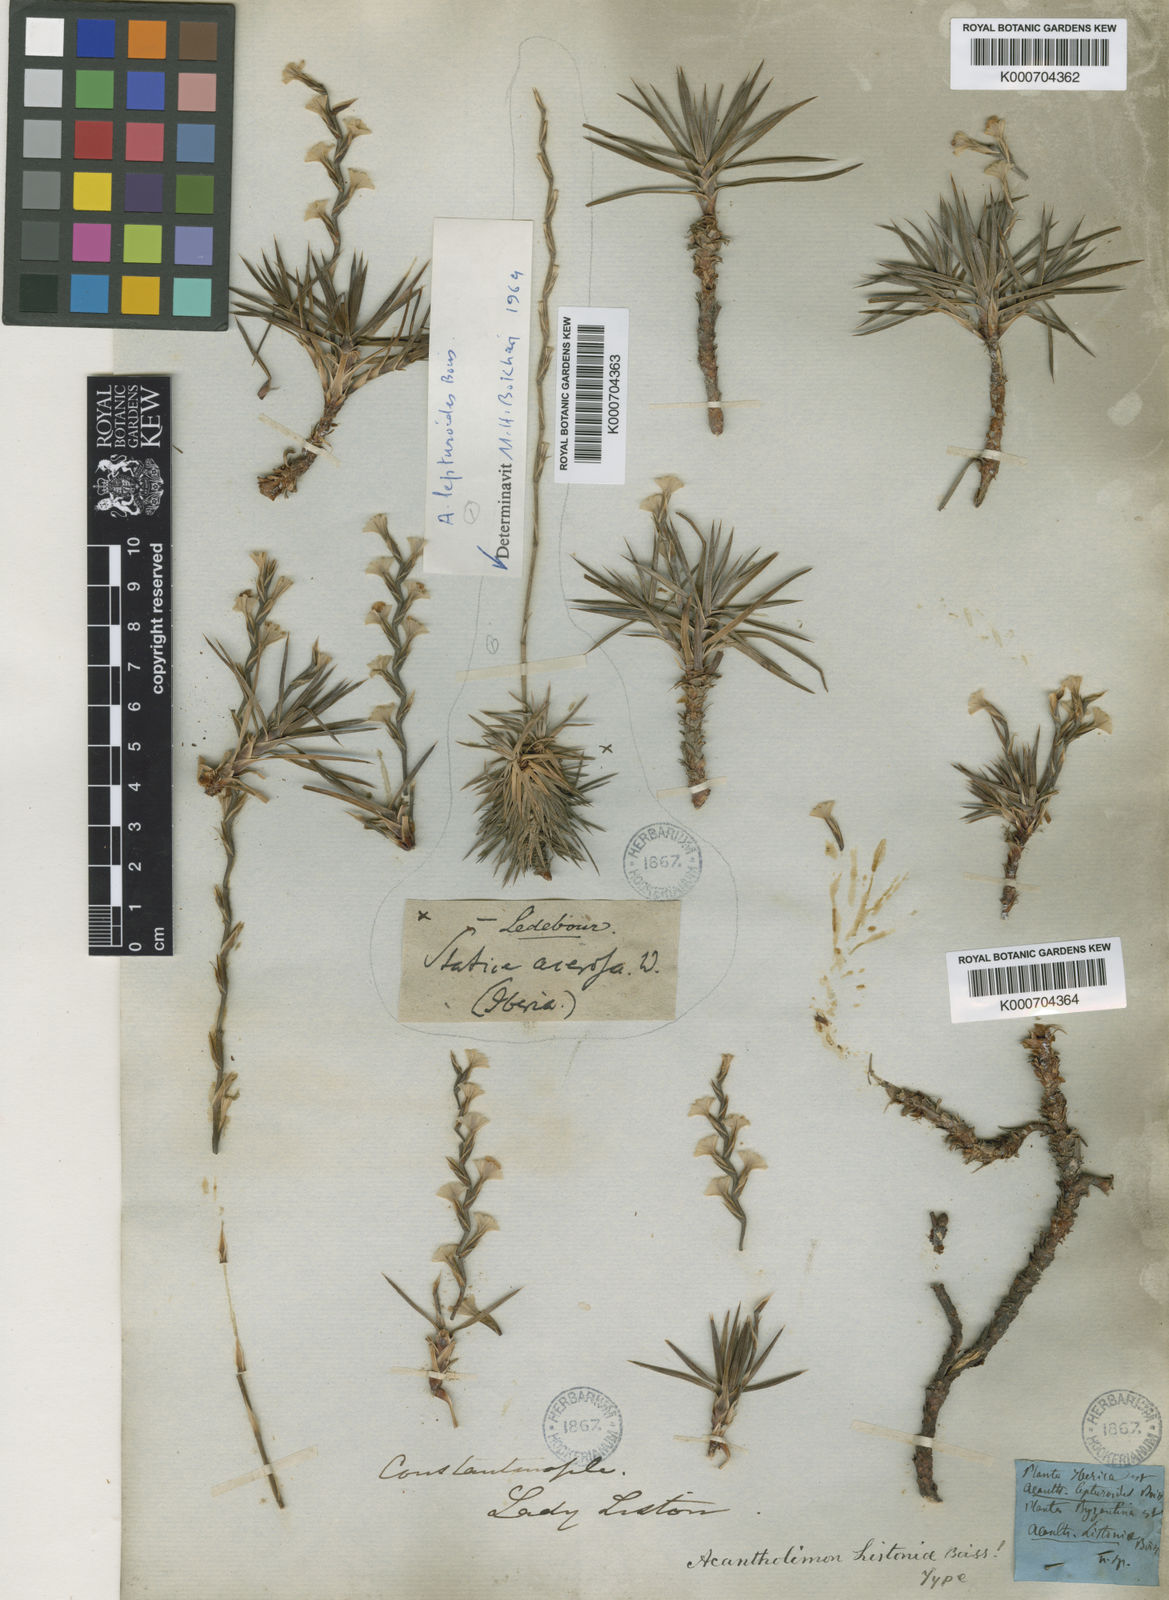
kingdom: Plantae
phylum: Tracheophyta
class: Magnoliopsida
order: Caryophyllales
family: Plumbaginaceae
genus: Acantholimon
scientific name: Acantholimon acerosum
